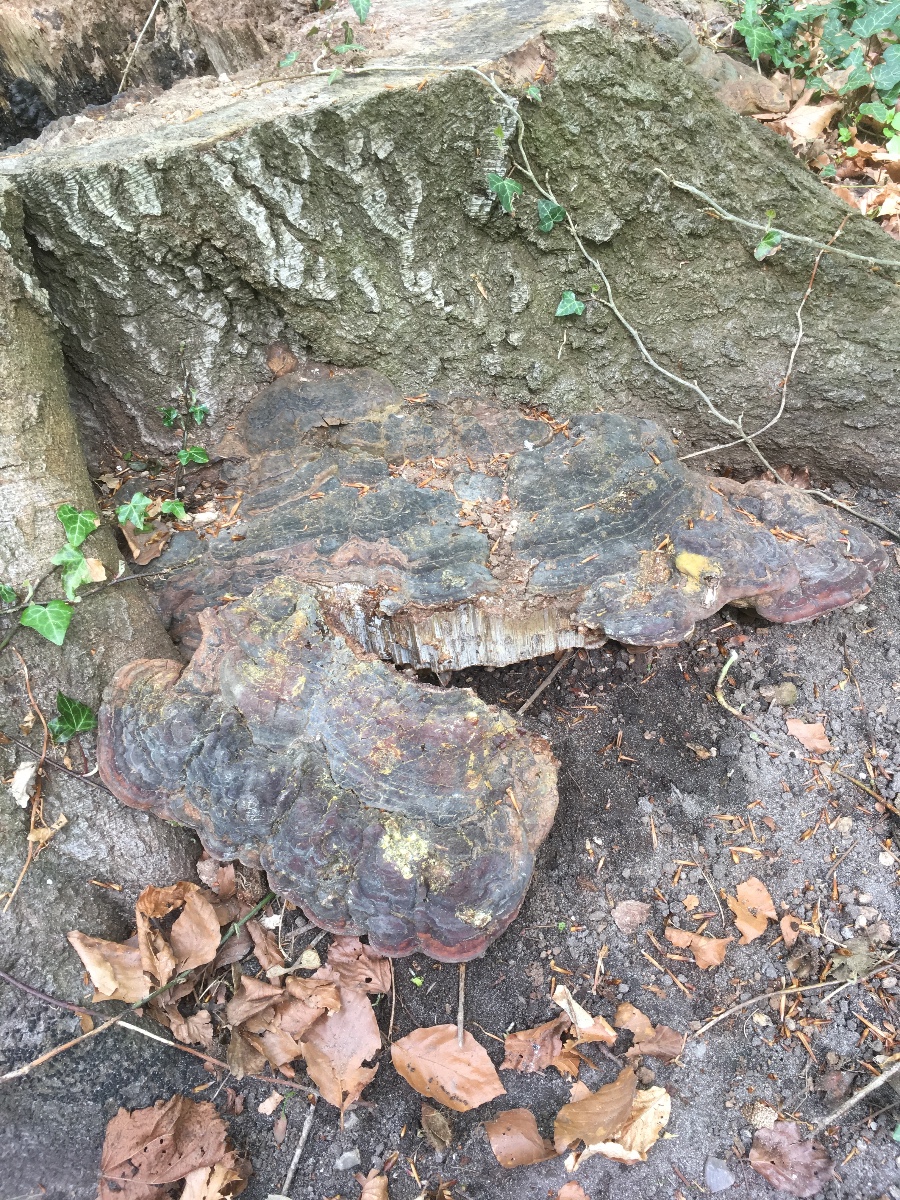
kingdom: Fungi
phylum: Basidiomycota
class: Agaricomycetes
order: Polyporales
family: Polyporaceae
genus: Ganoderma
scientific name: Ganoderma pfeifferi
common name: kobberrød lakporesvamp
